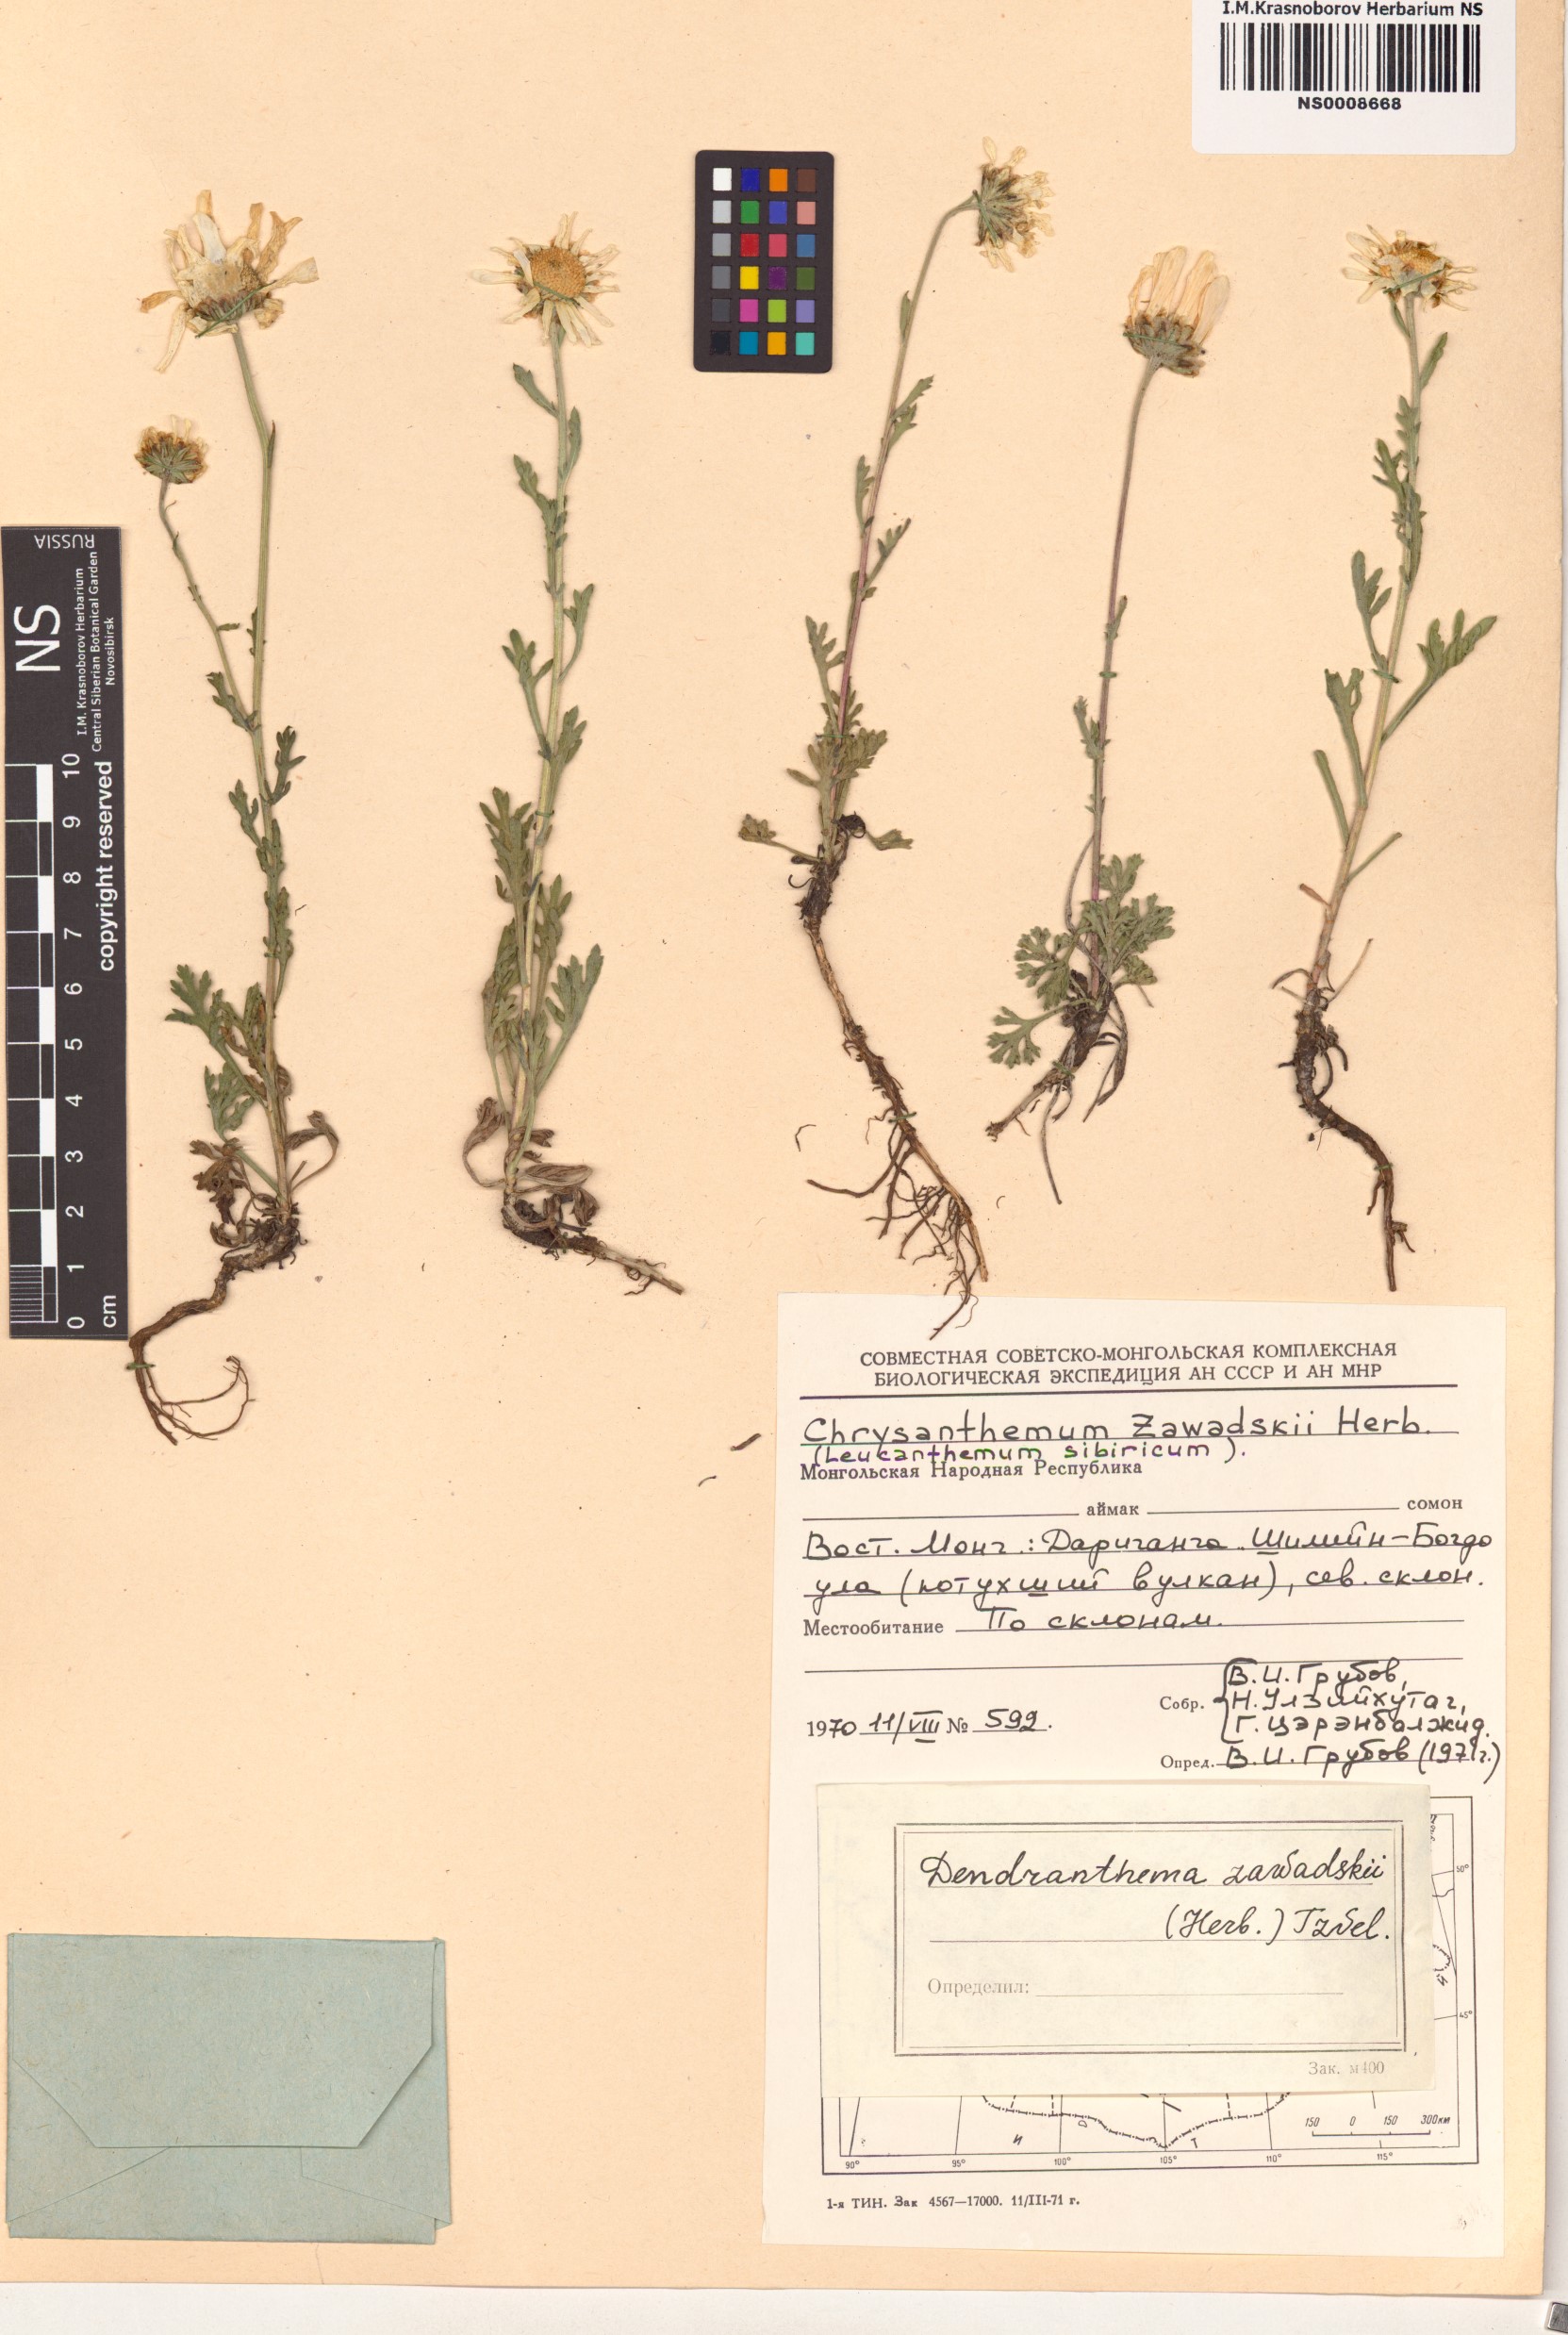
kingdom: Plantae
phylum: Tracheophyta
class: Magnoliopsida
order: Asterales
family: Asteraceae
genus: Chrysanthemum
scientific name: Chrysanthemum zawadzkii
